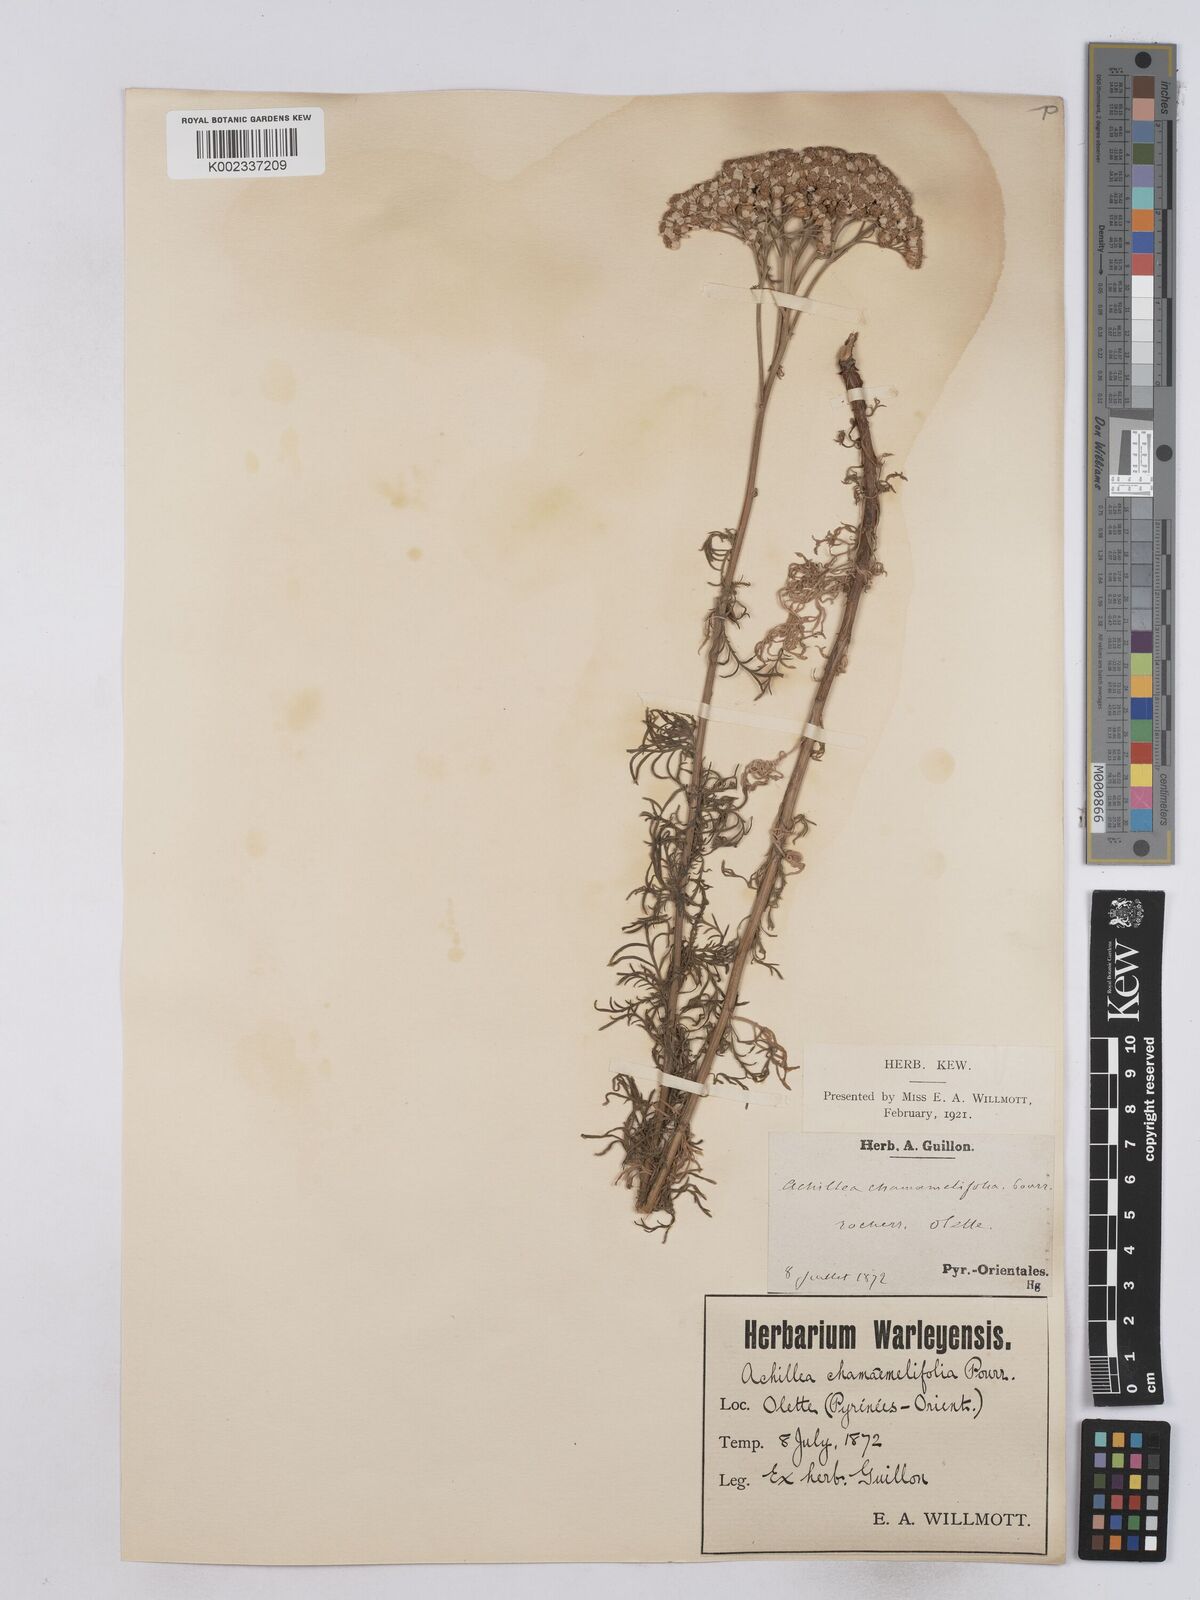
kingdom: Plantae
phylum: Tracheophyta
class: Magnoliopsida
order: Asterales
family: Asteraceae
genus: Achillea
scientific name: Achillea chamaemelifolia
